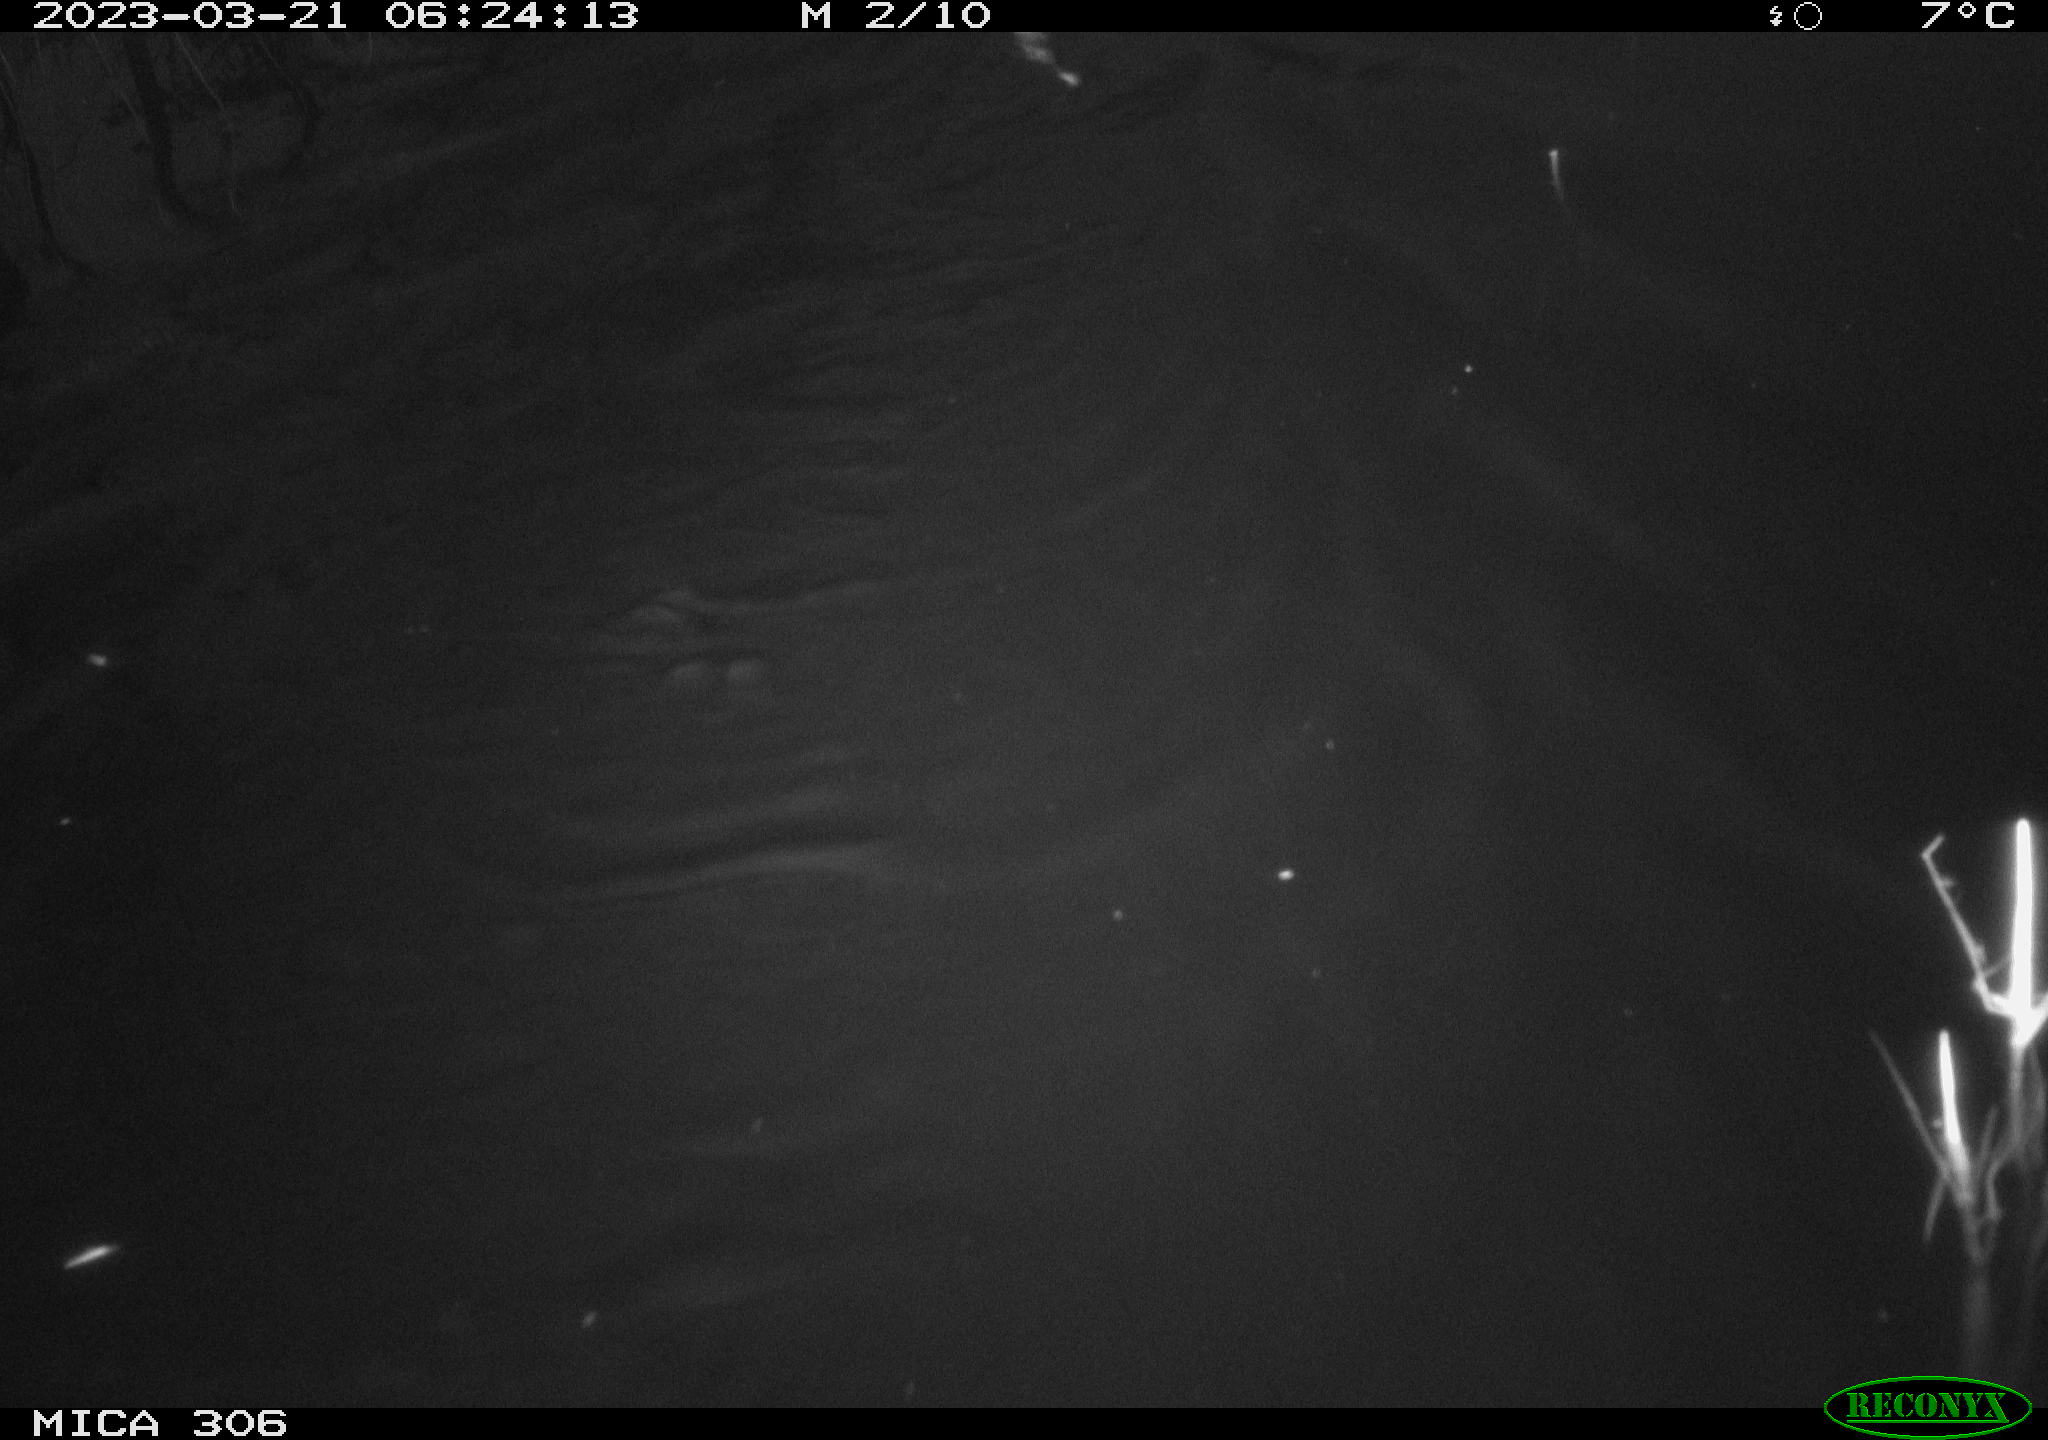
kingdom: Animalia
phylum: Chordata
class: Mammalia
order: Rodentia
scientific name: Rodentia
